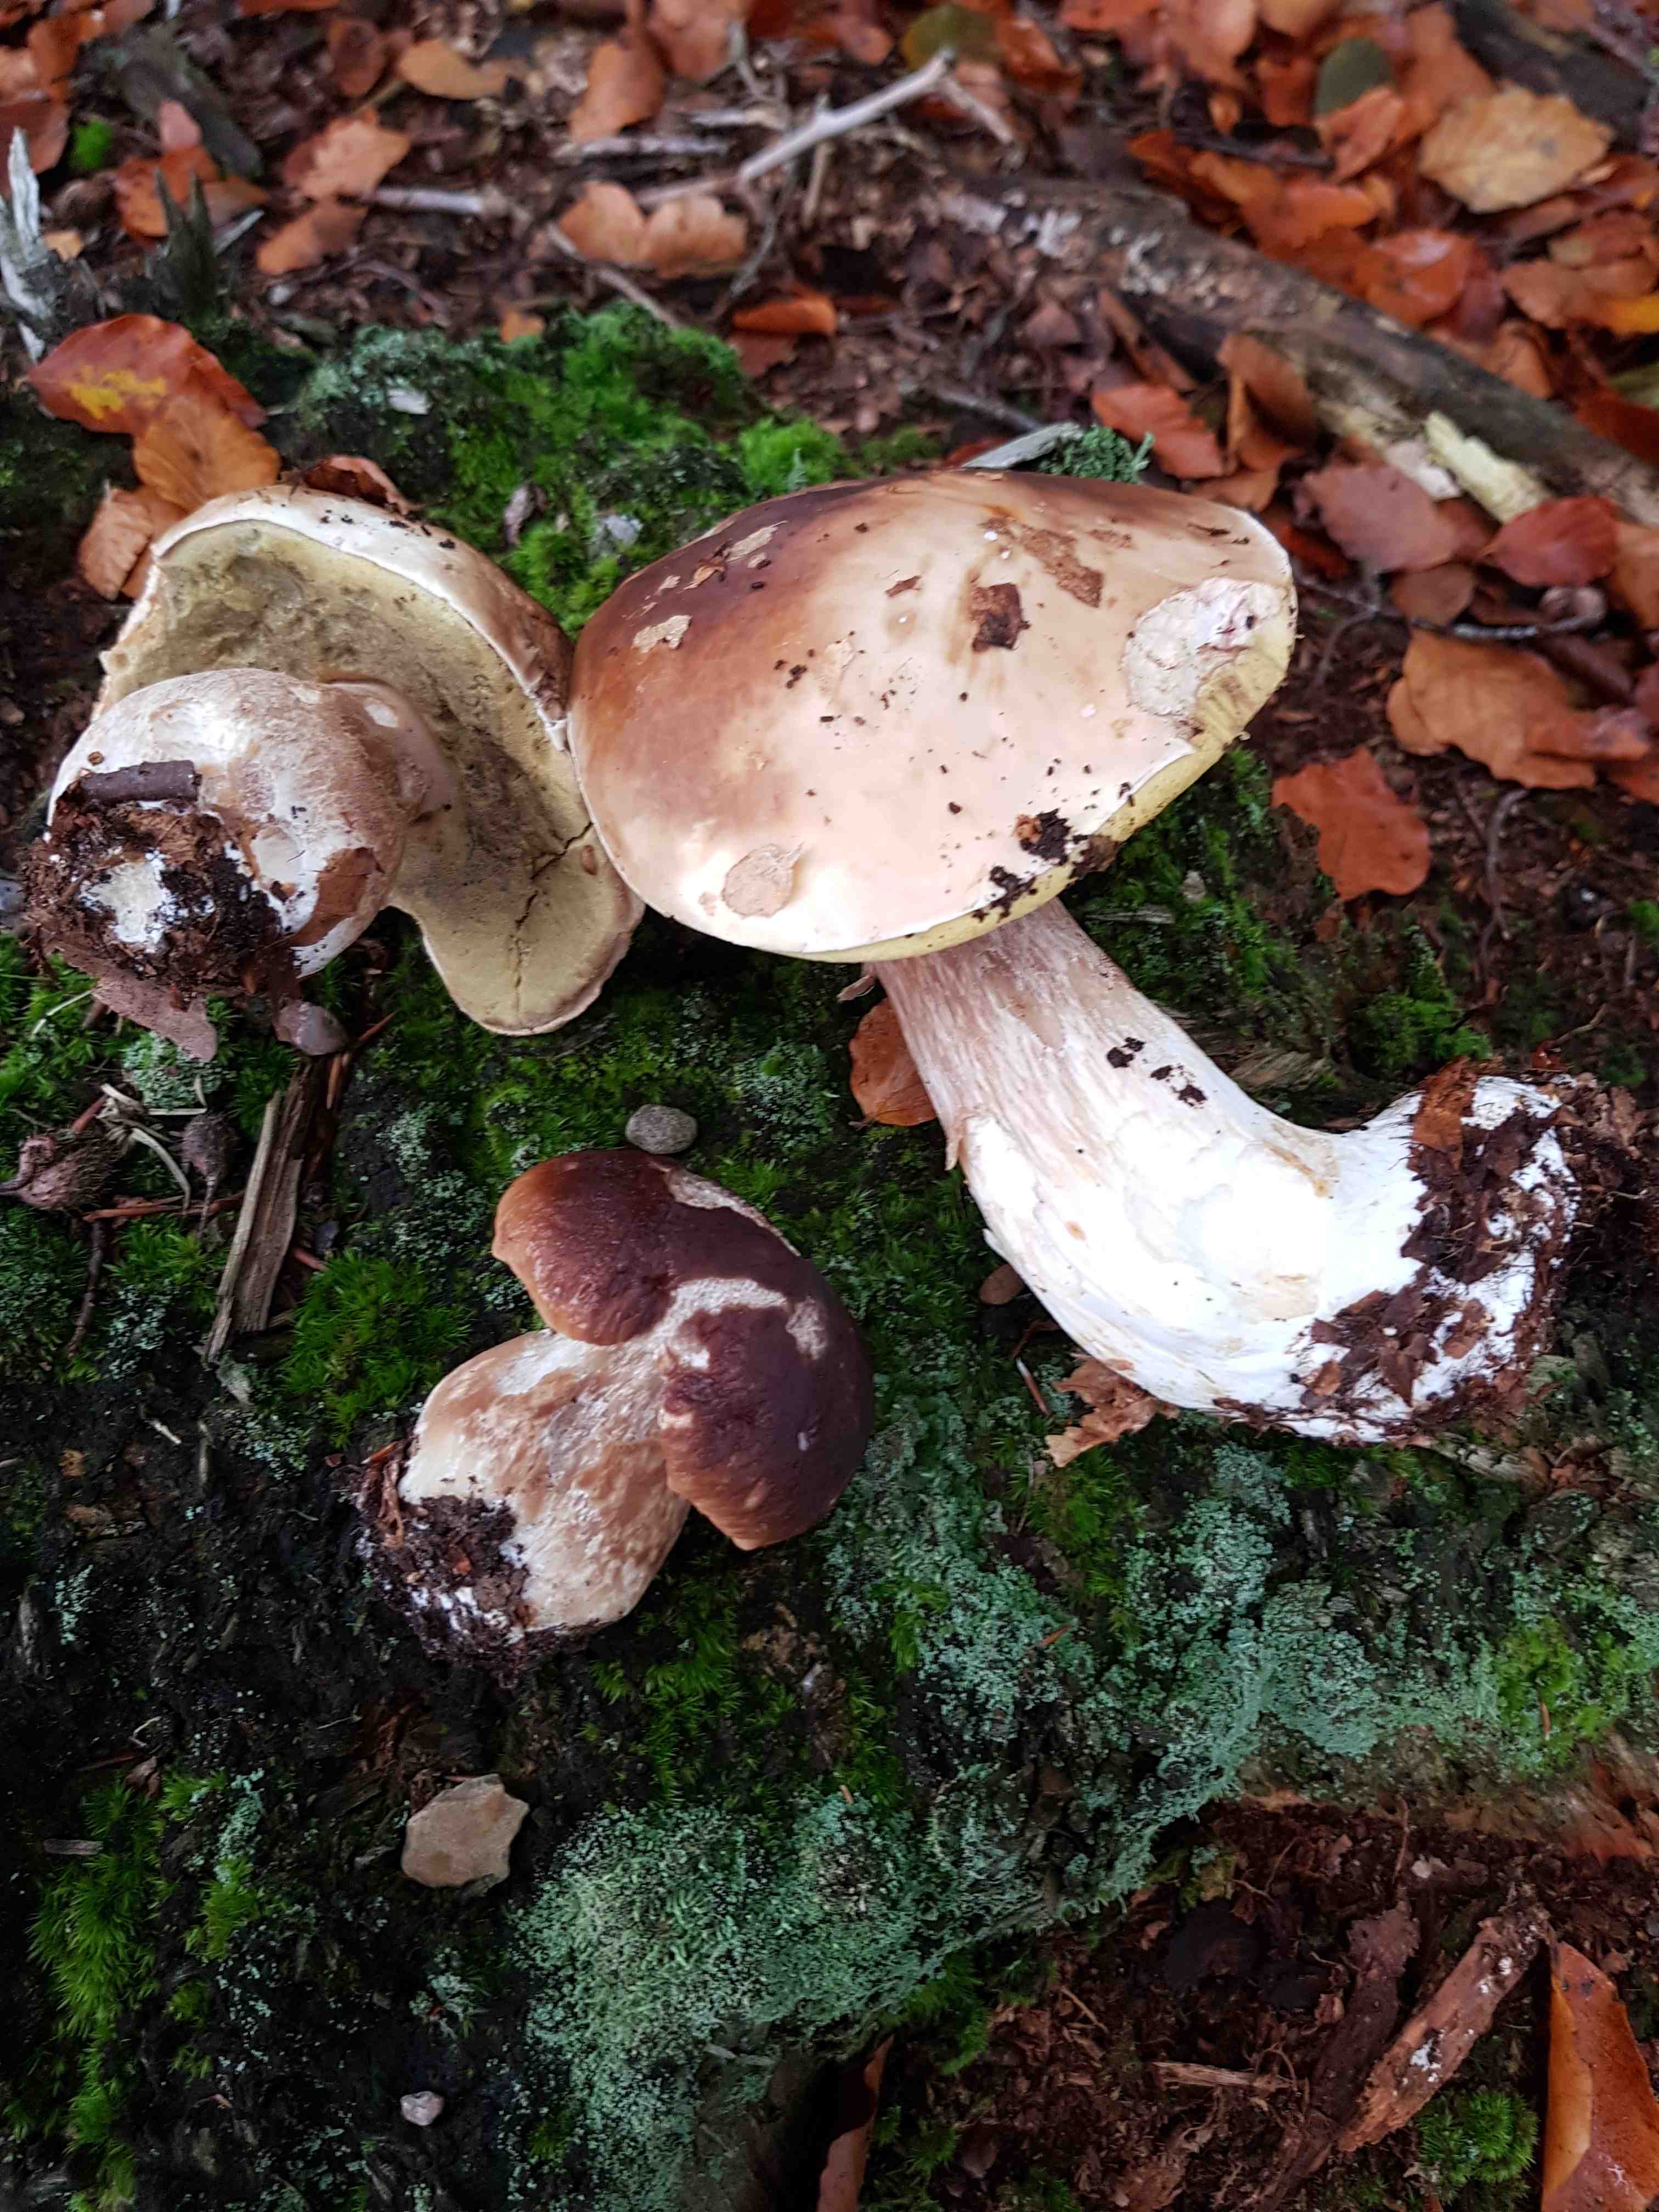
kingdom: Fungi
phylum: Basidiomycota
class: Agaricomycetes
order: Boletales
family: Boletaceae
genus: Boletus
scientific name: Boletus edulis
